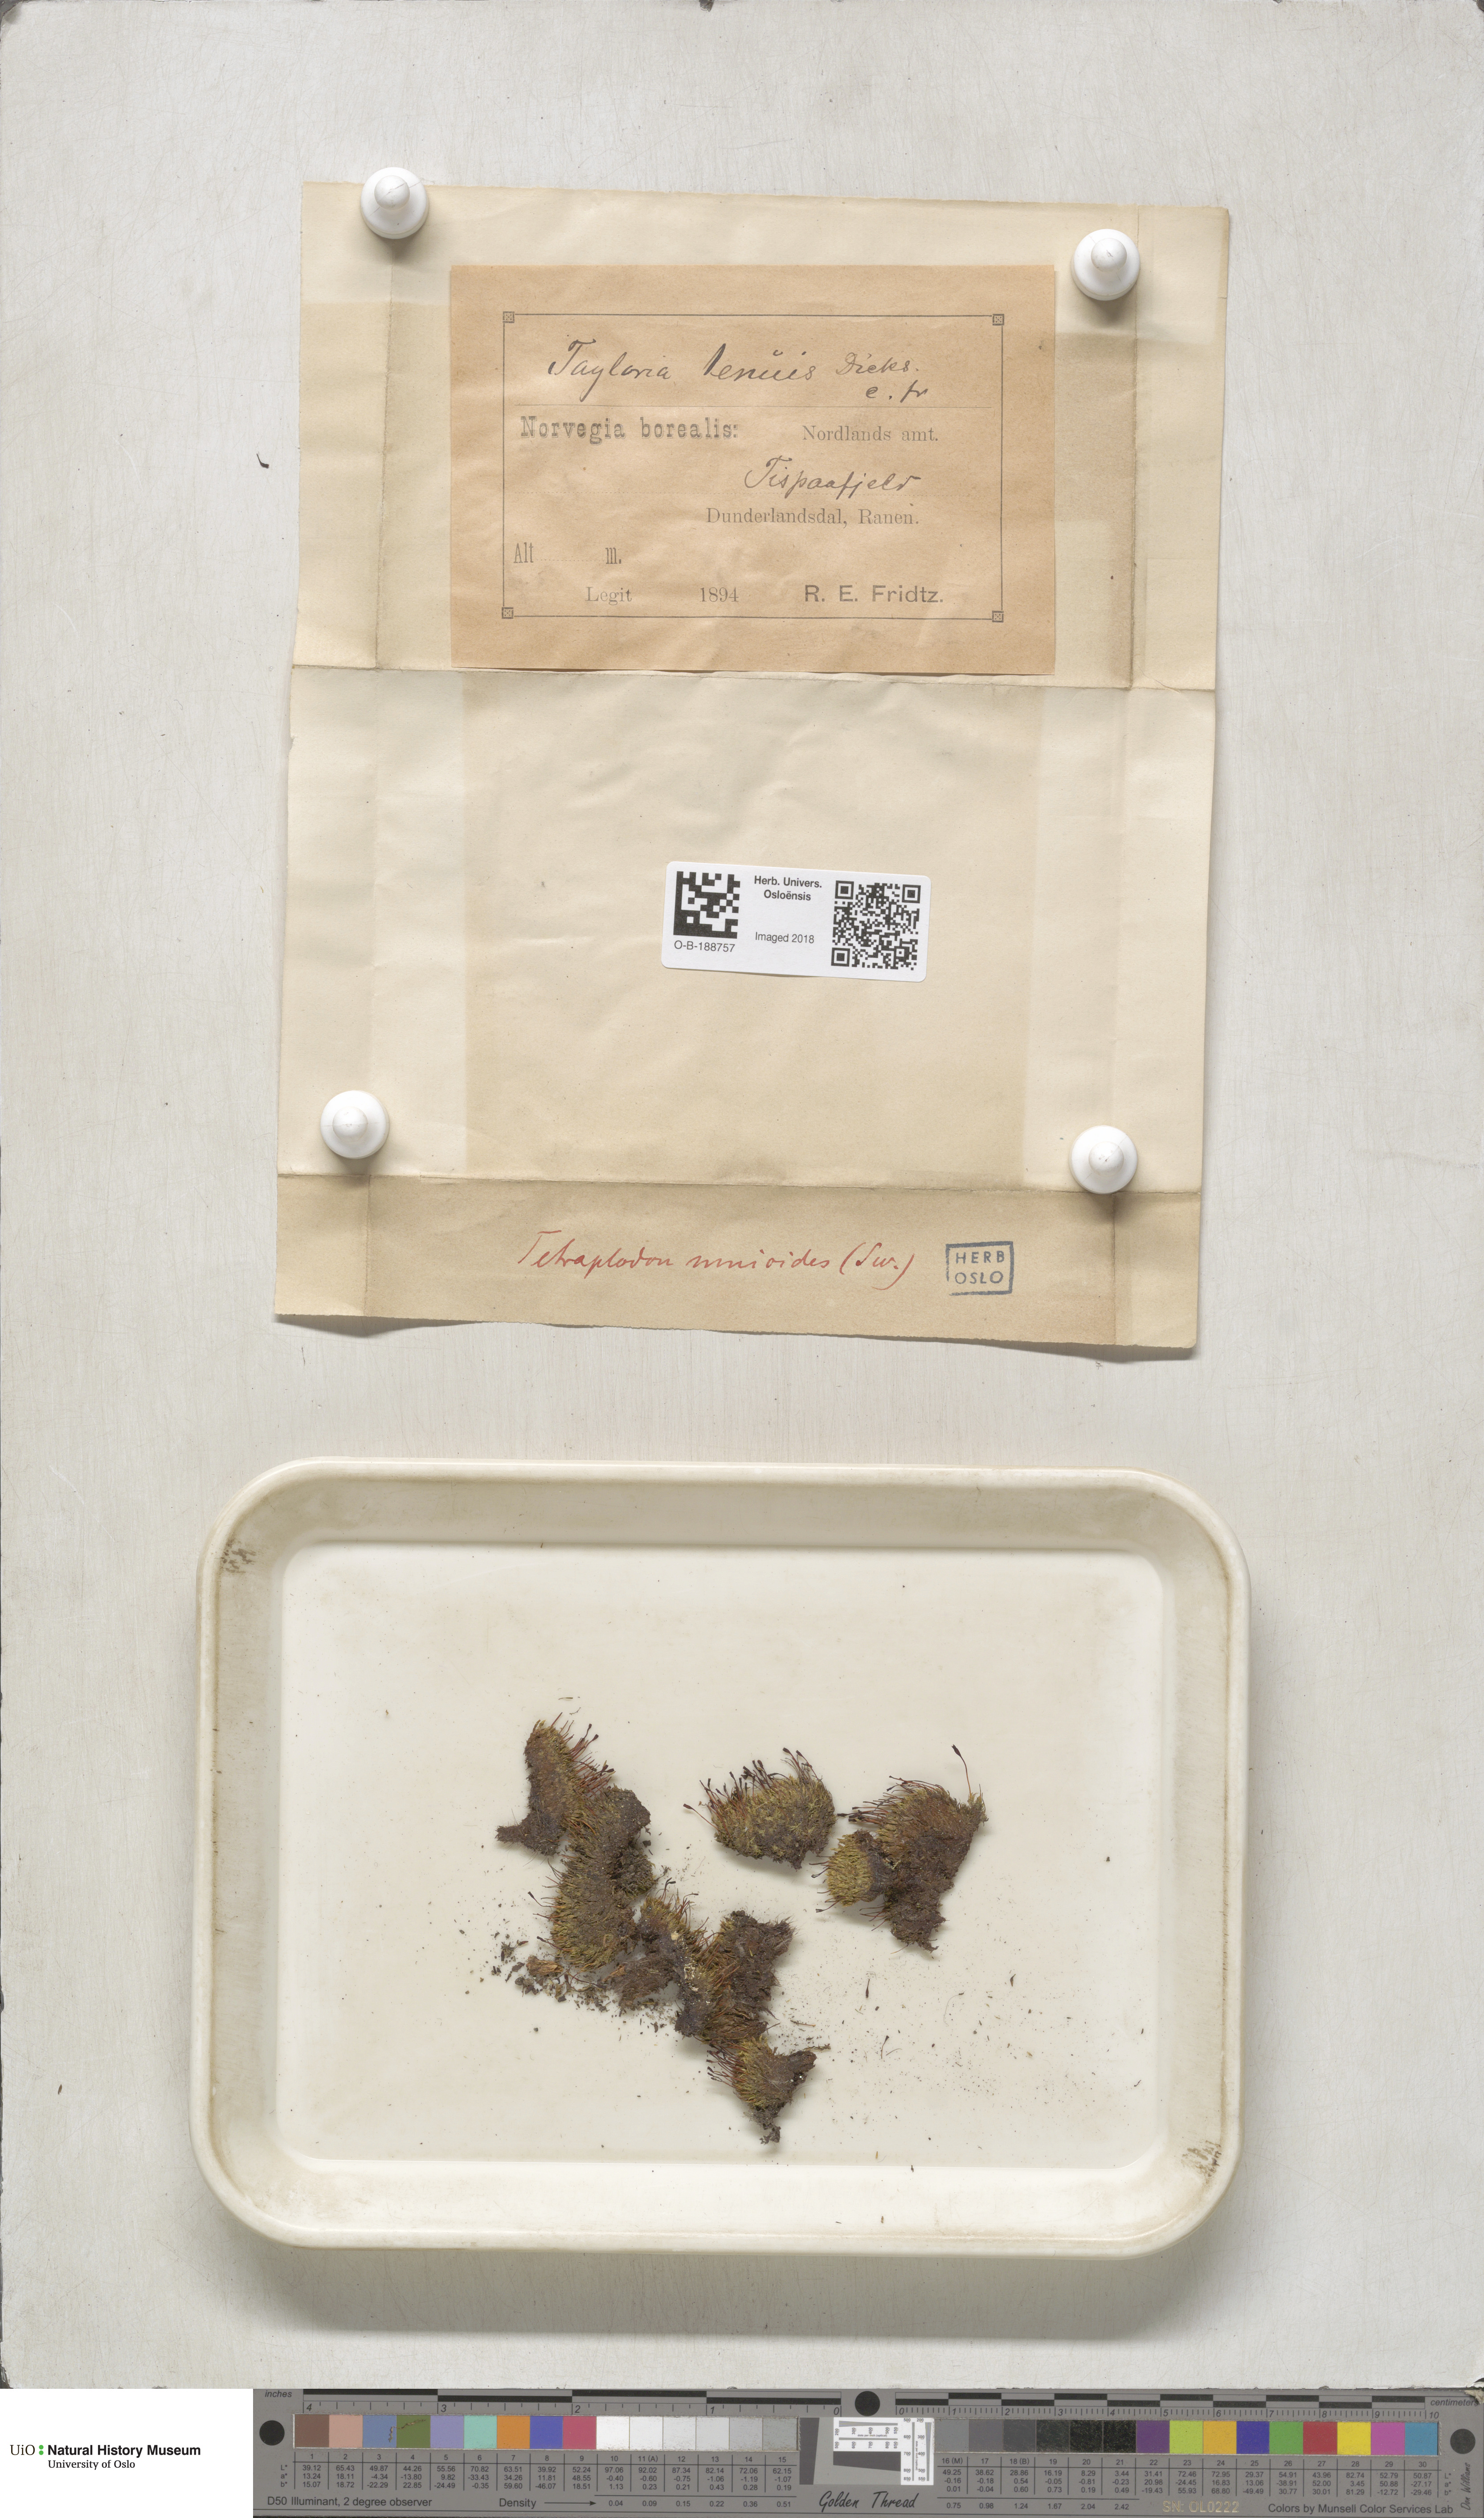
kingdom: Plantae
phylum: Bryophyta
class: Bryopsida
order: Splachnales
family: Splachnaceae
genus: Tetraplodon
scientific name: Tetraplodon mnioides
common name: Entire-leaved nitrogen moss
